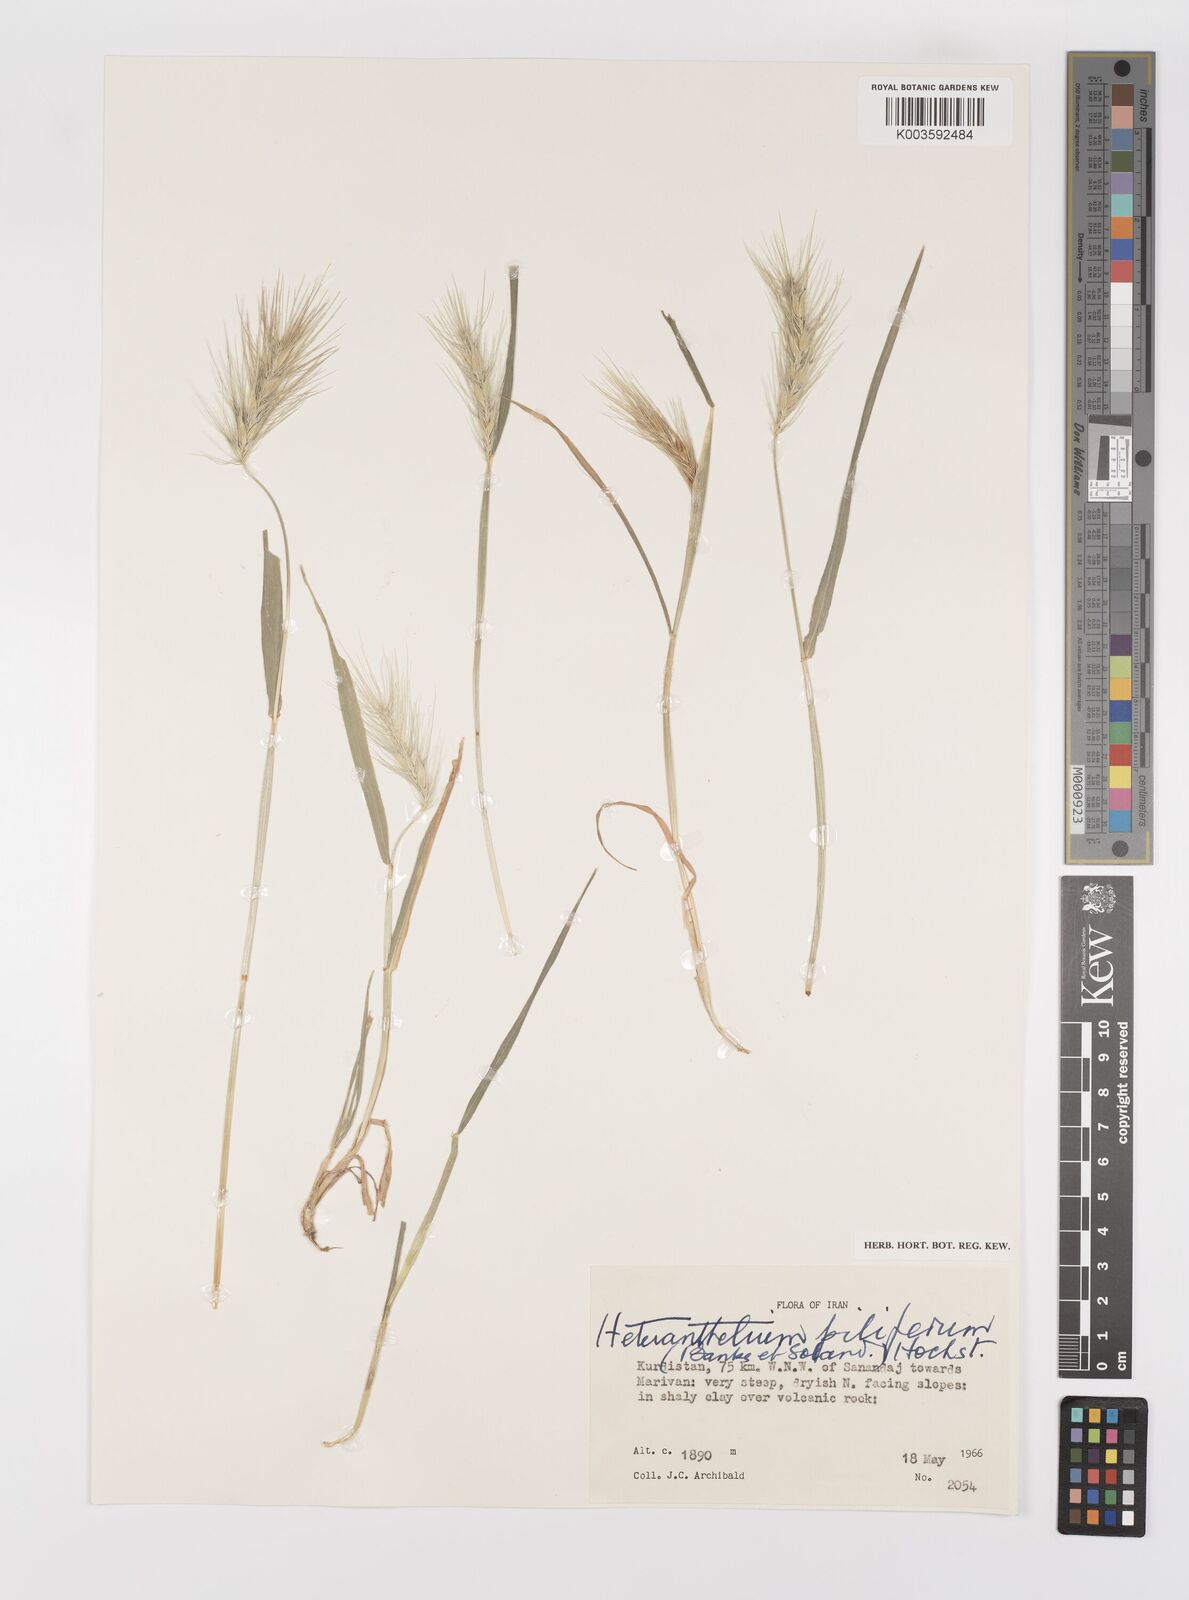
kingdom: Plantae
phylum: Tracheophyta
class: Liliopsida
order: Poales
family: Poaceae
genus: Heteranthelium
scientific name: Heteranthelium piliferum
